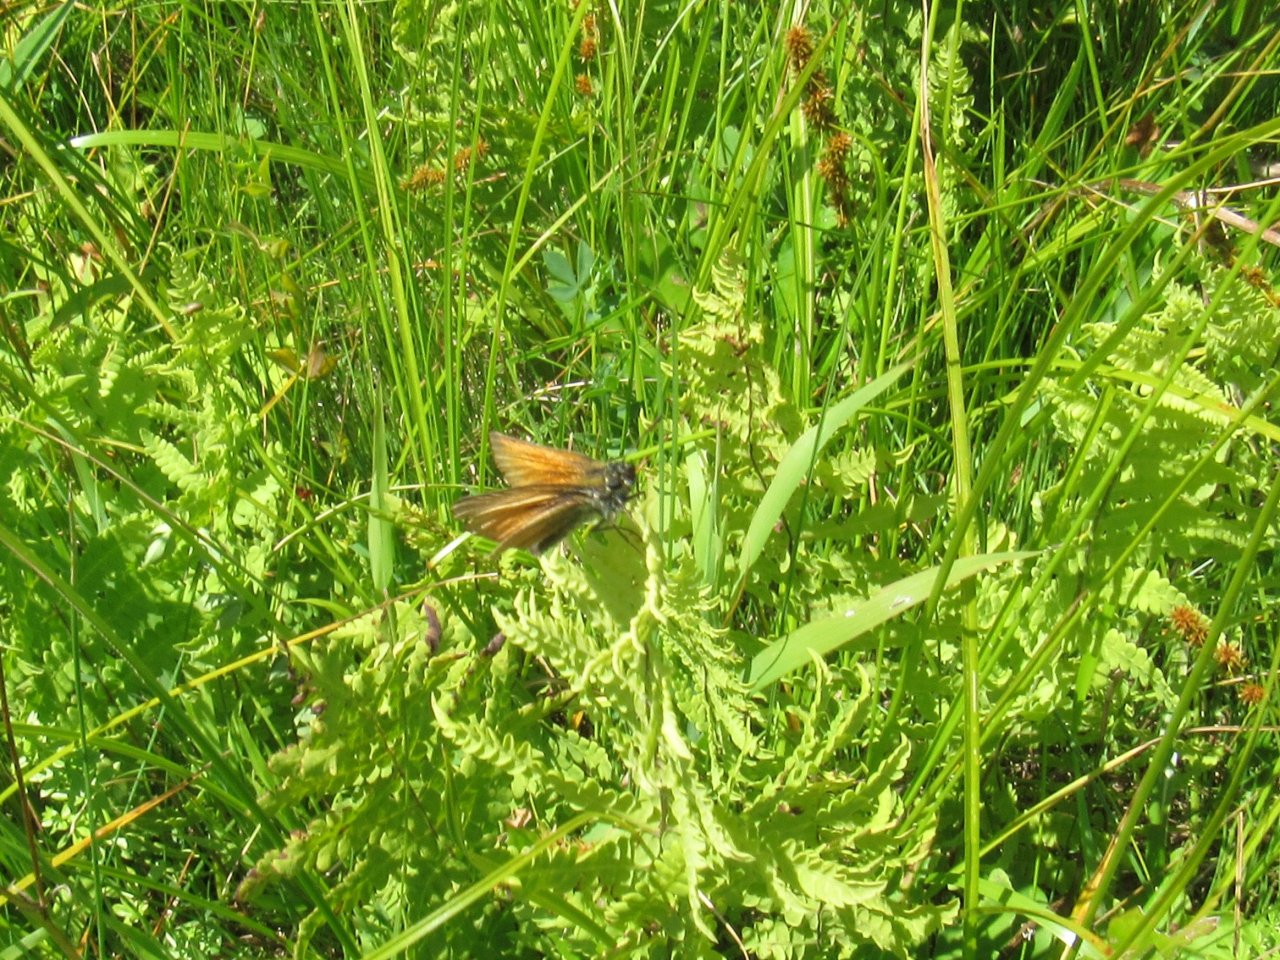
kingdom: Animalia
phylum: Arthropoda
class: Insecta
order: Lepidoptera
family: Hesperiidae
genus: Thymelicus
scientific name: Thymelicus lineola
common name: European Skipper
